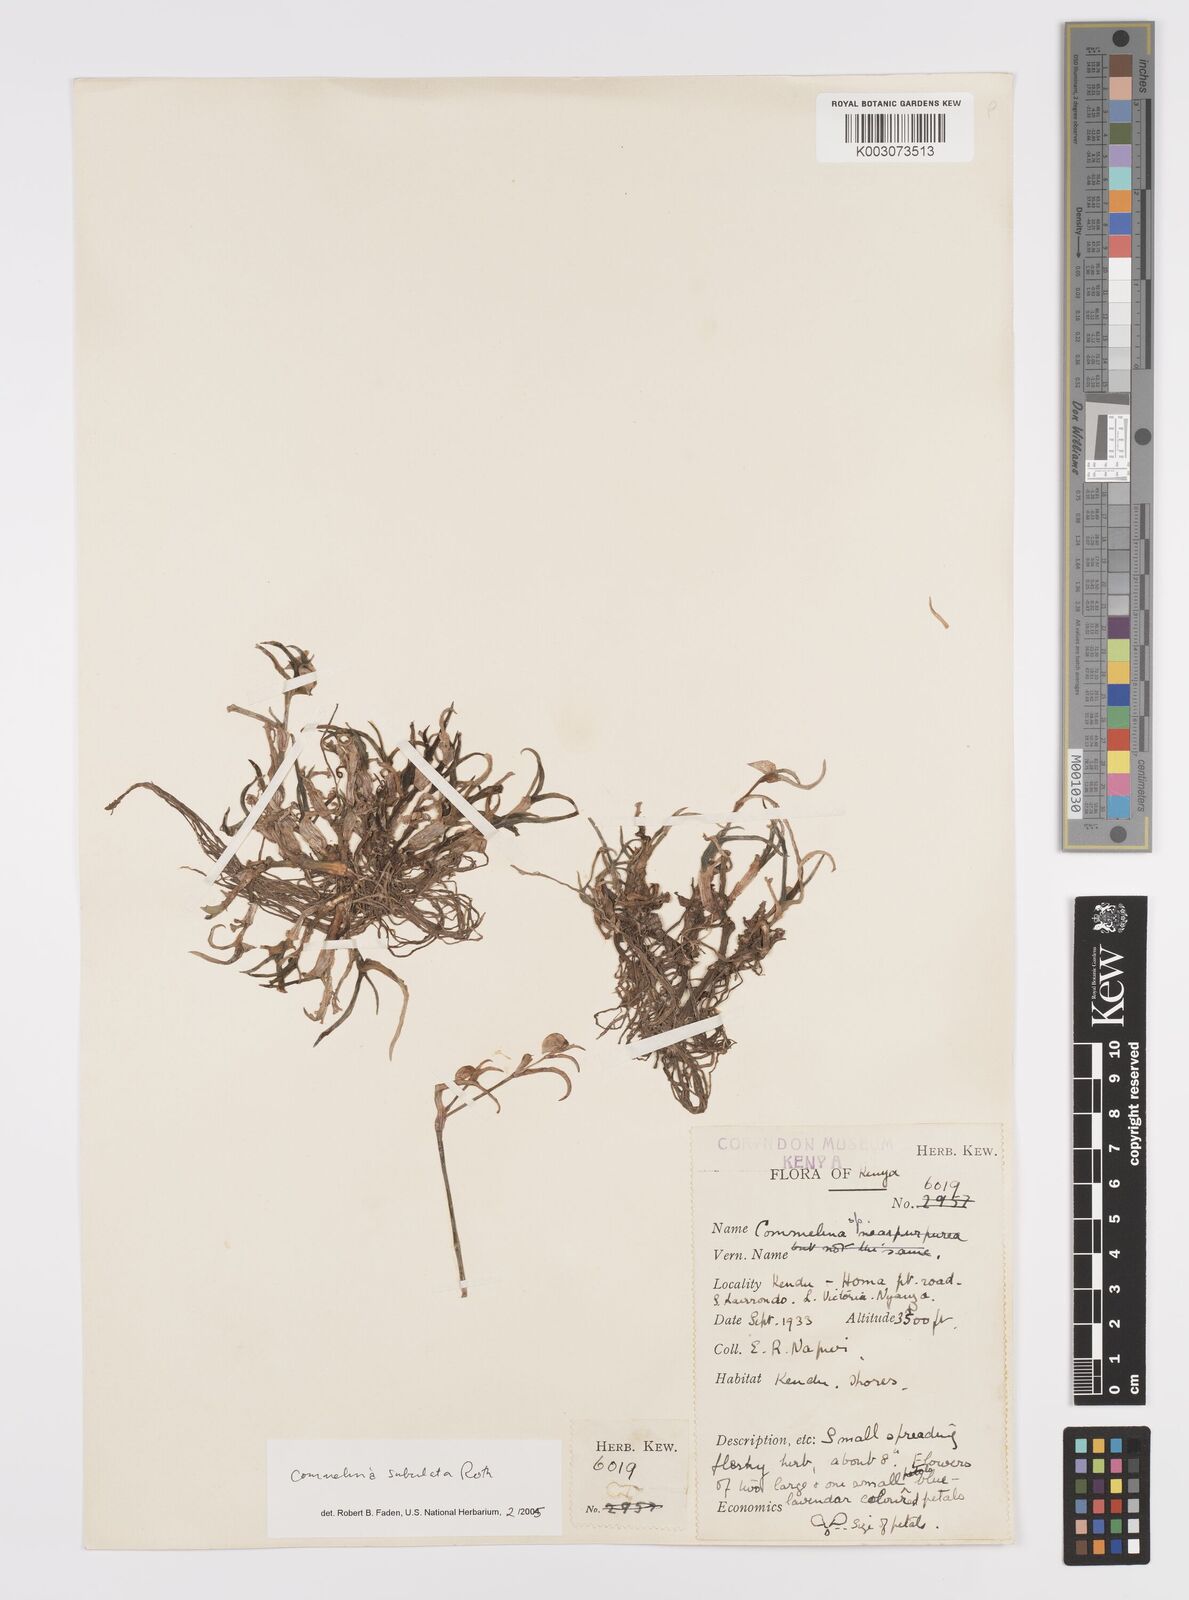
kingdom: Plantae
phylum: Tracheophyta
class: Liliopsida
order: Commelinales
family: Commelinaceae
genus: Commelina
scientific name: Commelina subulata
